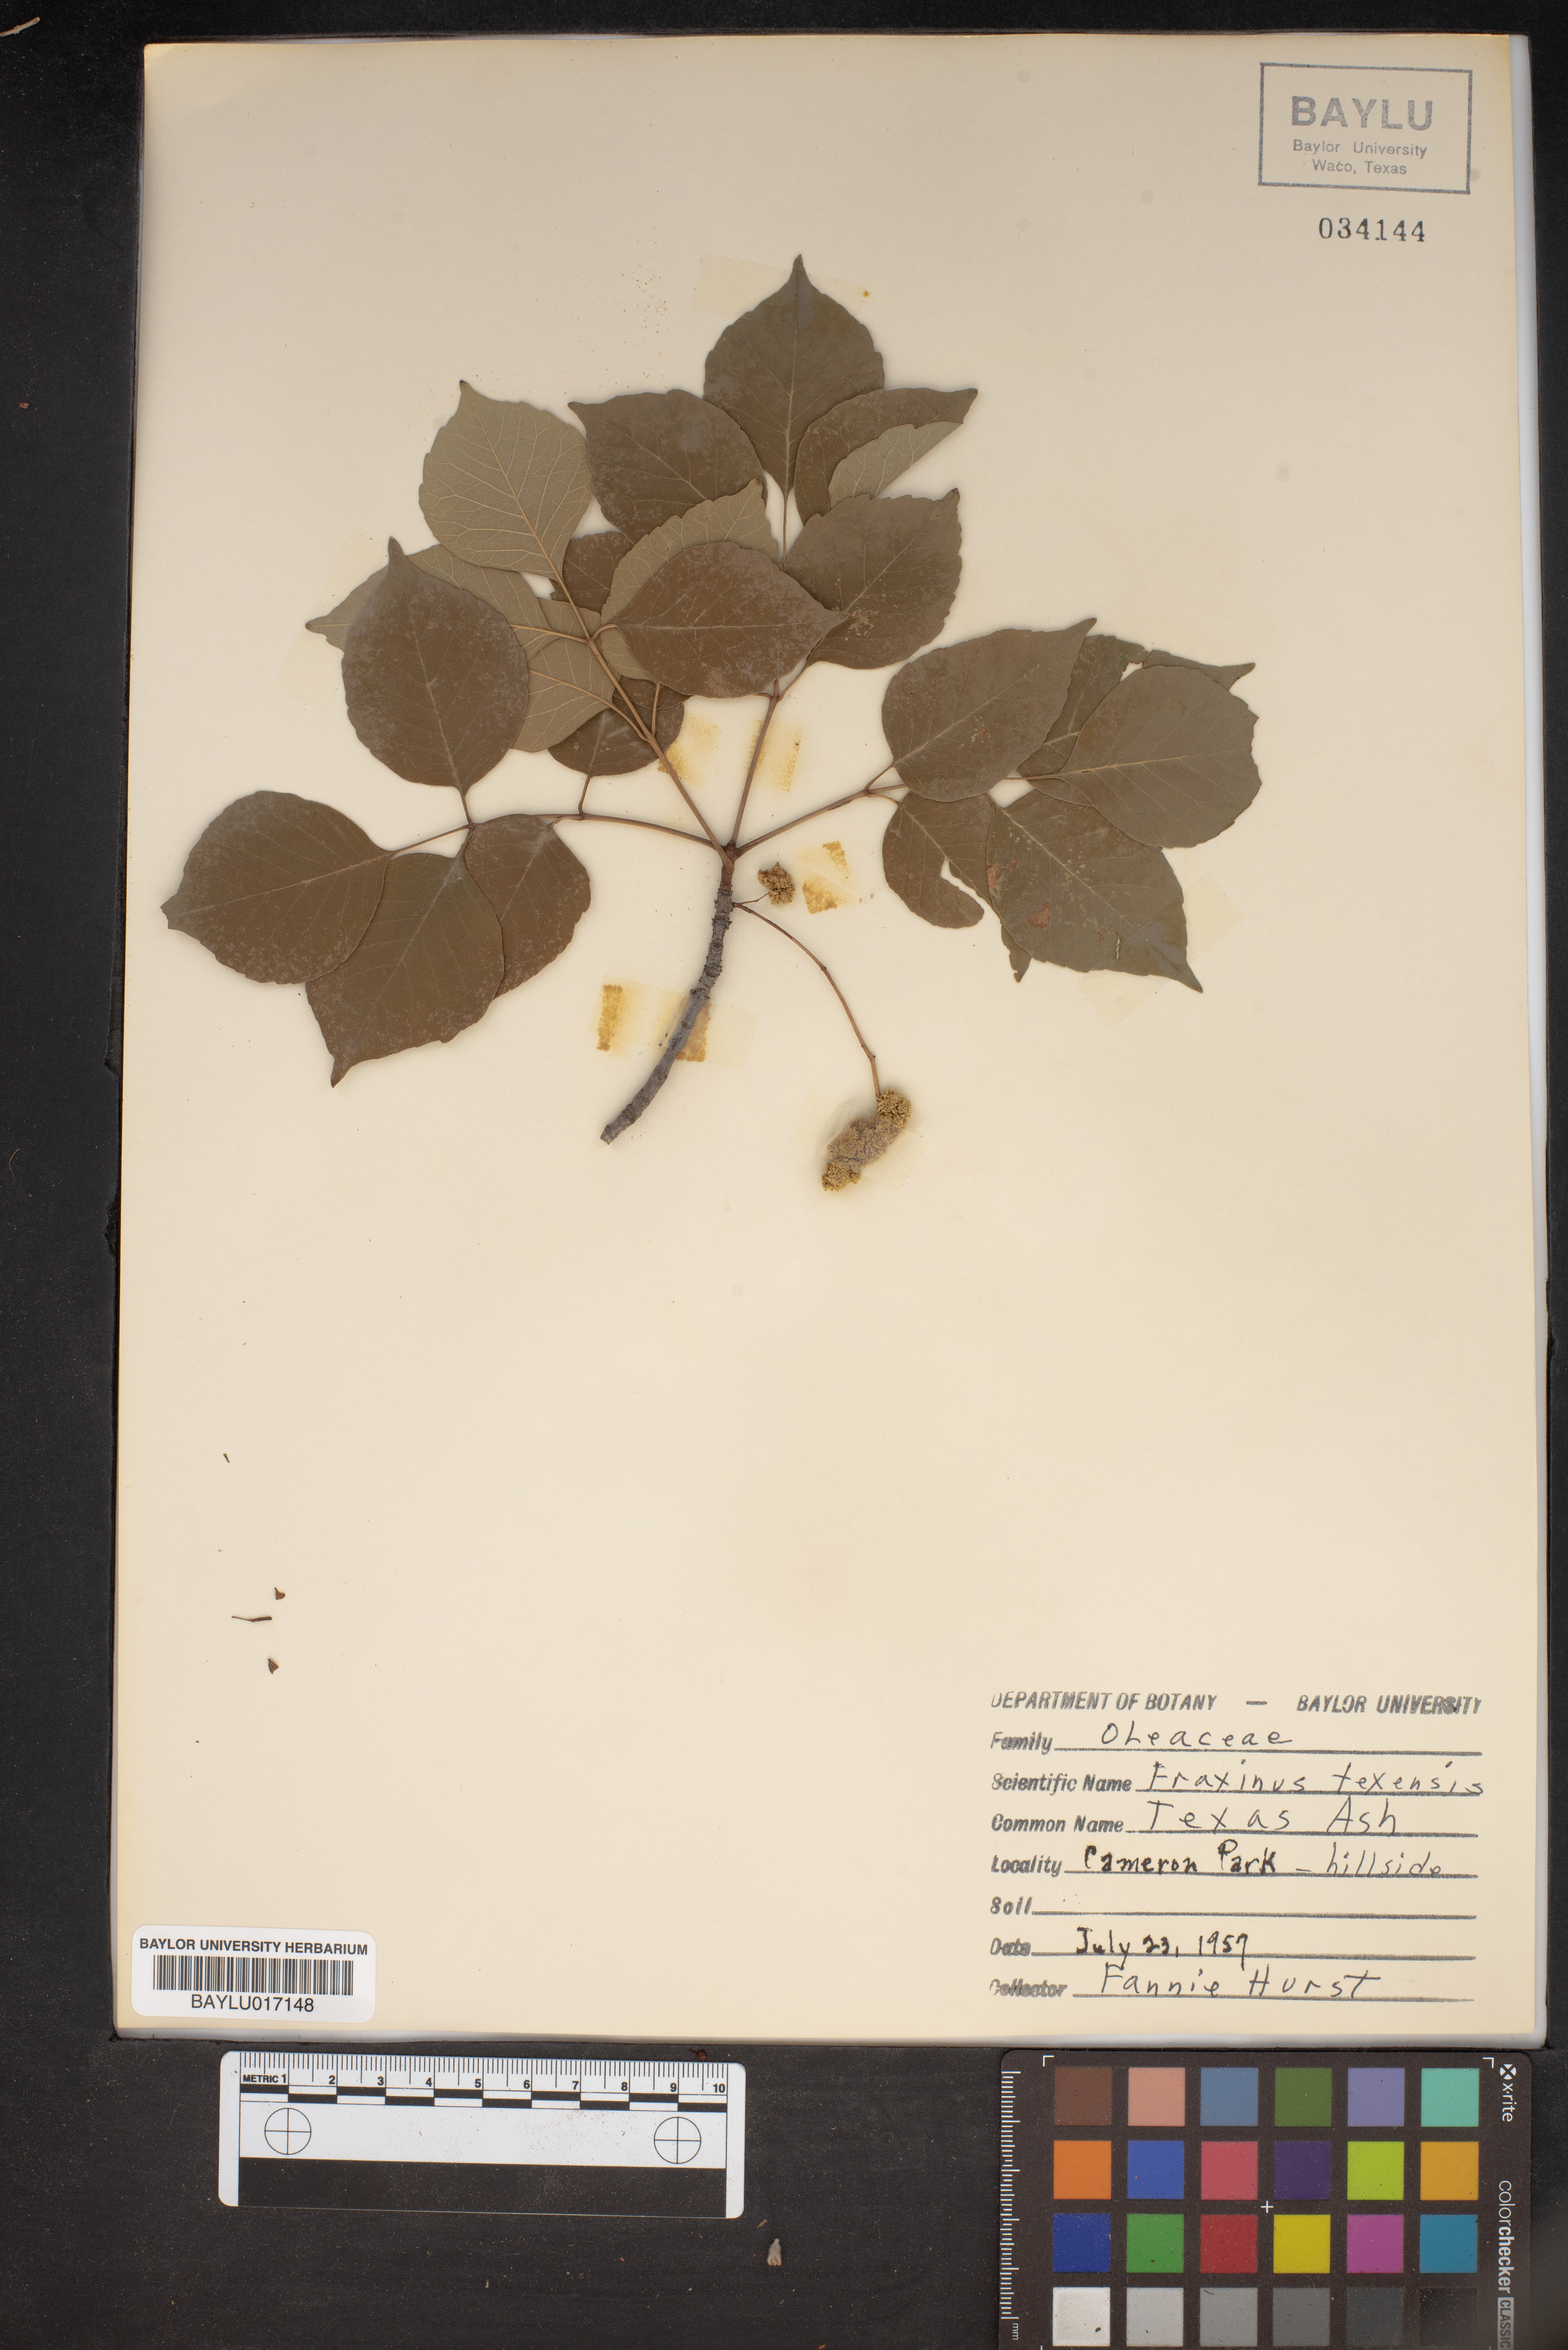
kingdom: Plantae
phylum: Tracheophyta
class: Magnoliopsida
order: Lamiales
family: Oleaceae
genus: Fraxinus
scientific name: Fraxinus albicans
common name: Texas ash
